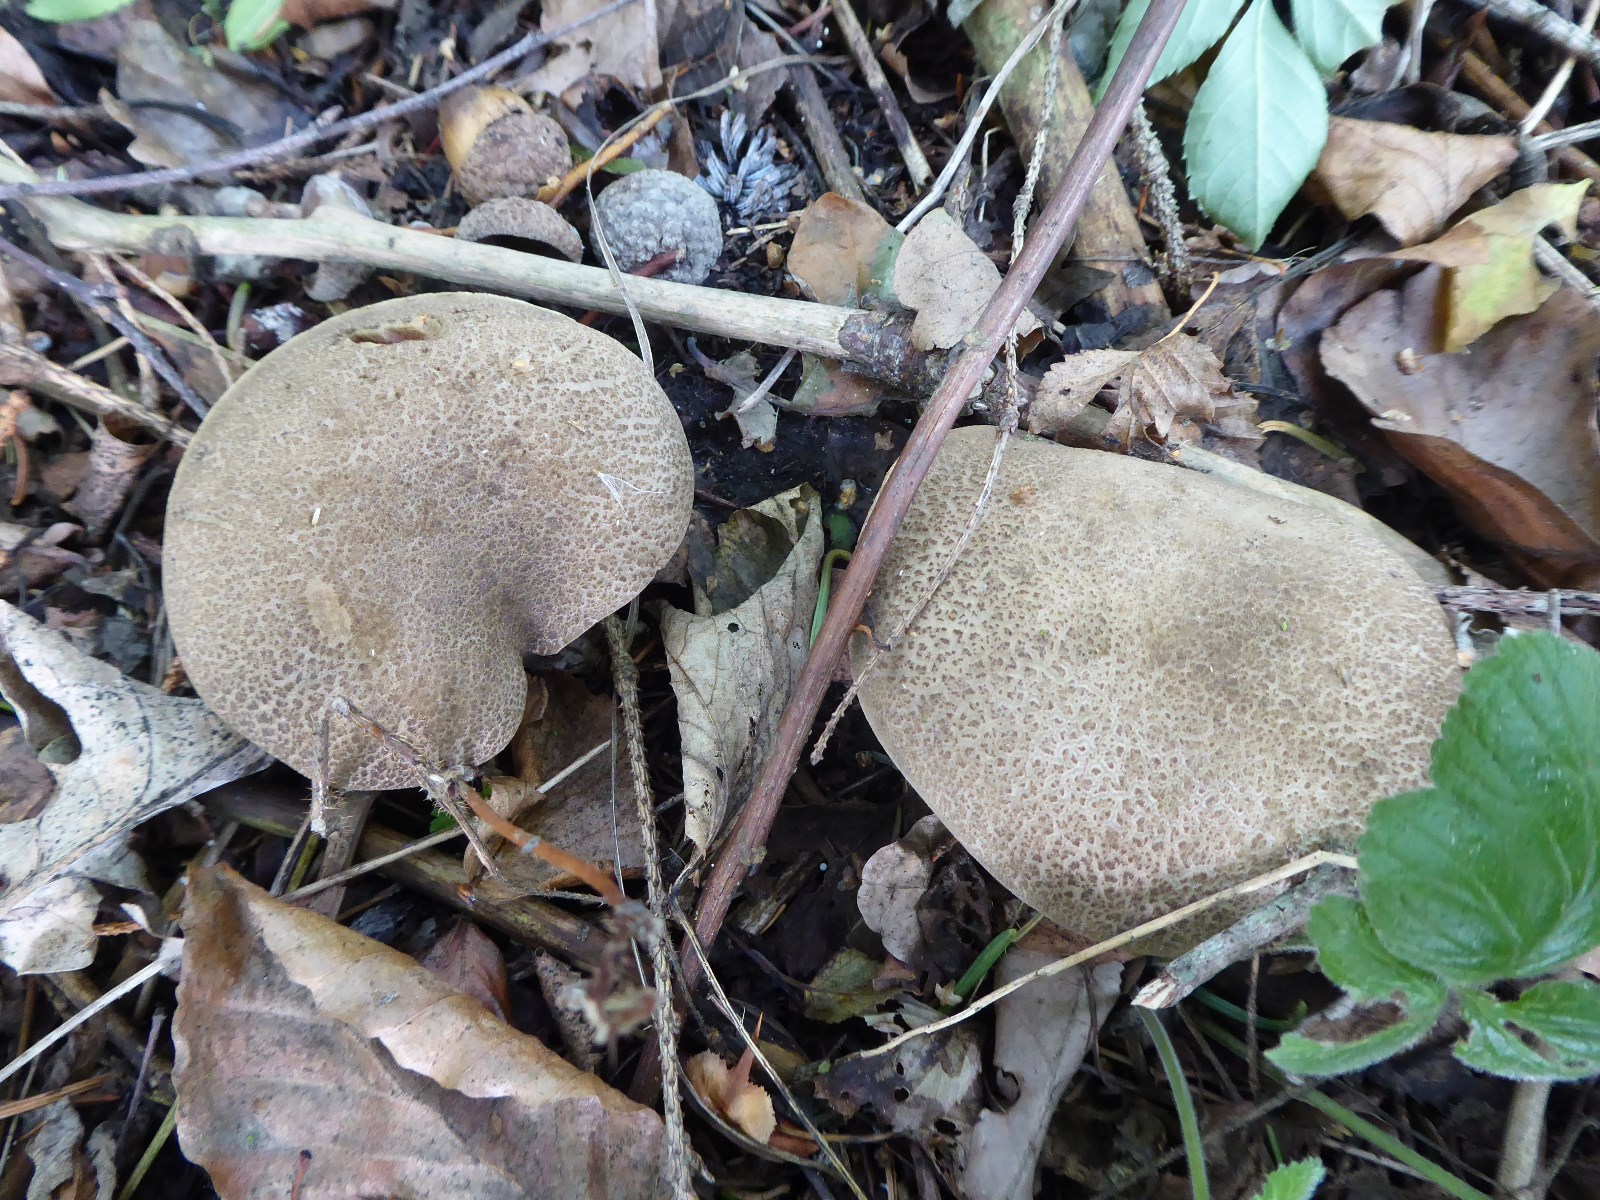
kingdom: Fungi
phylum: Basidiomycota
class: Agaricomycetes
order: Boletales
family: Boletaceae
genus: Xerocomellus
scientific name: Xerocomellus porosporus
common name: hvidsprukken rørhat
